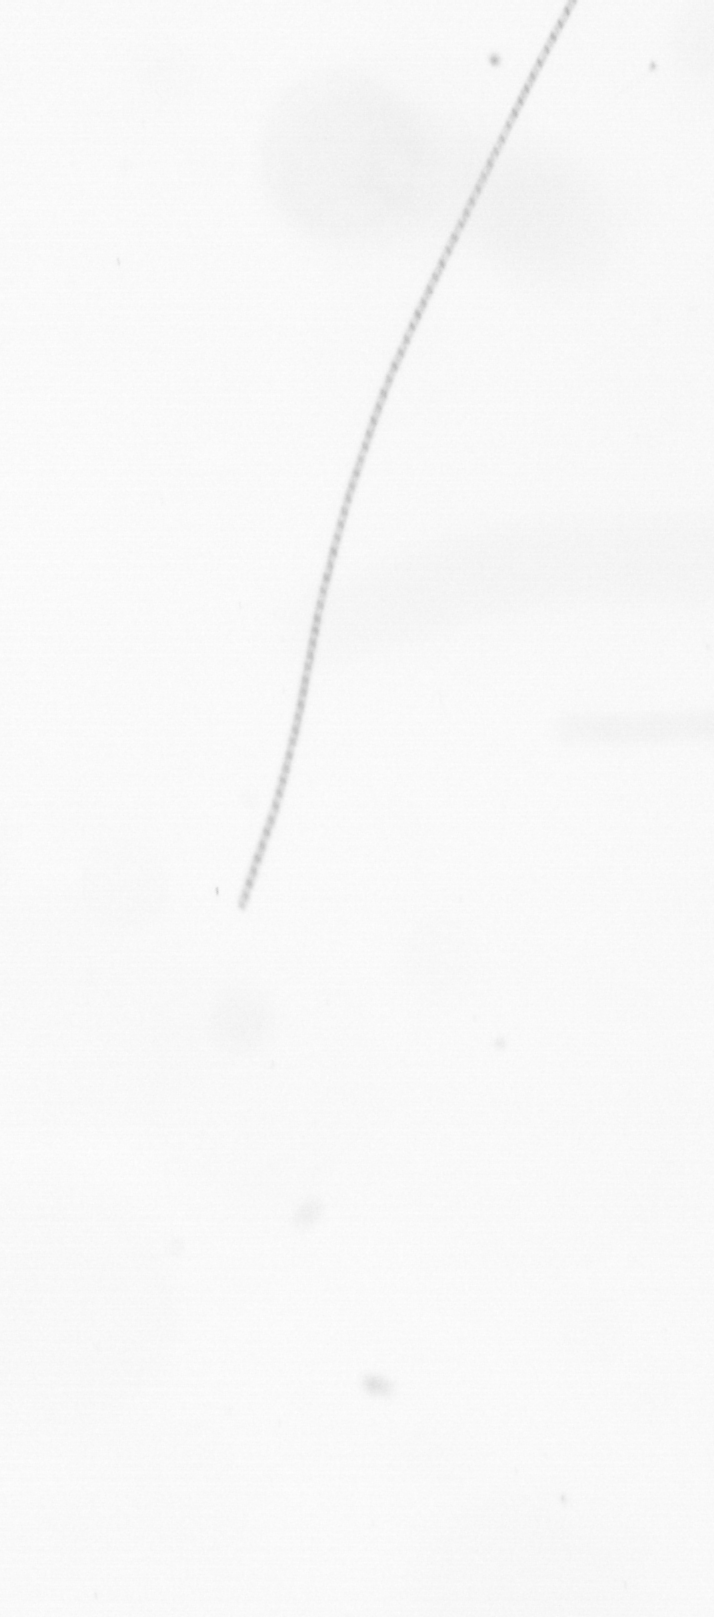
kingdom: Chromista
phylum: Ochrophyta
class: Bacillariophyceae
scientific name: Bacillariophyceae
